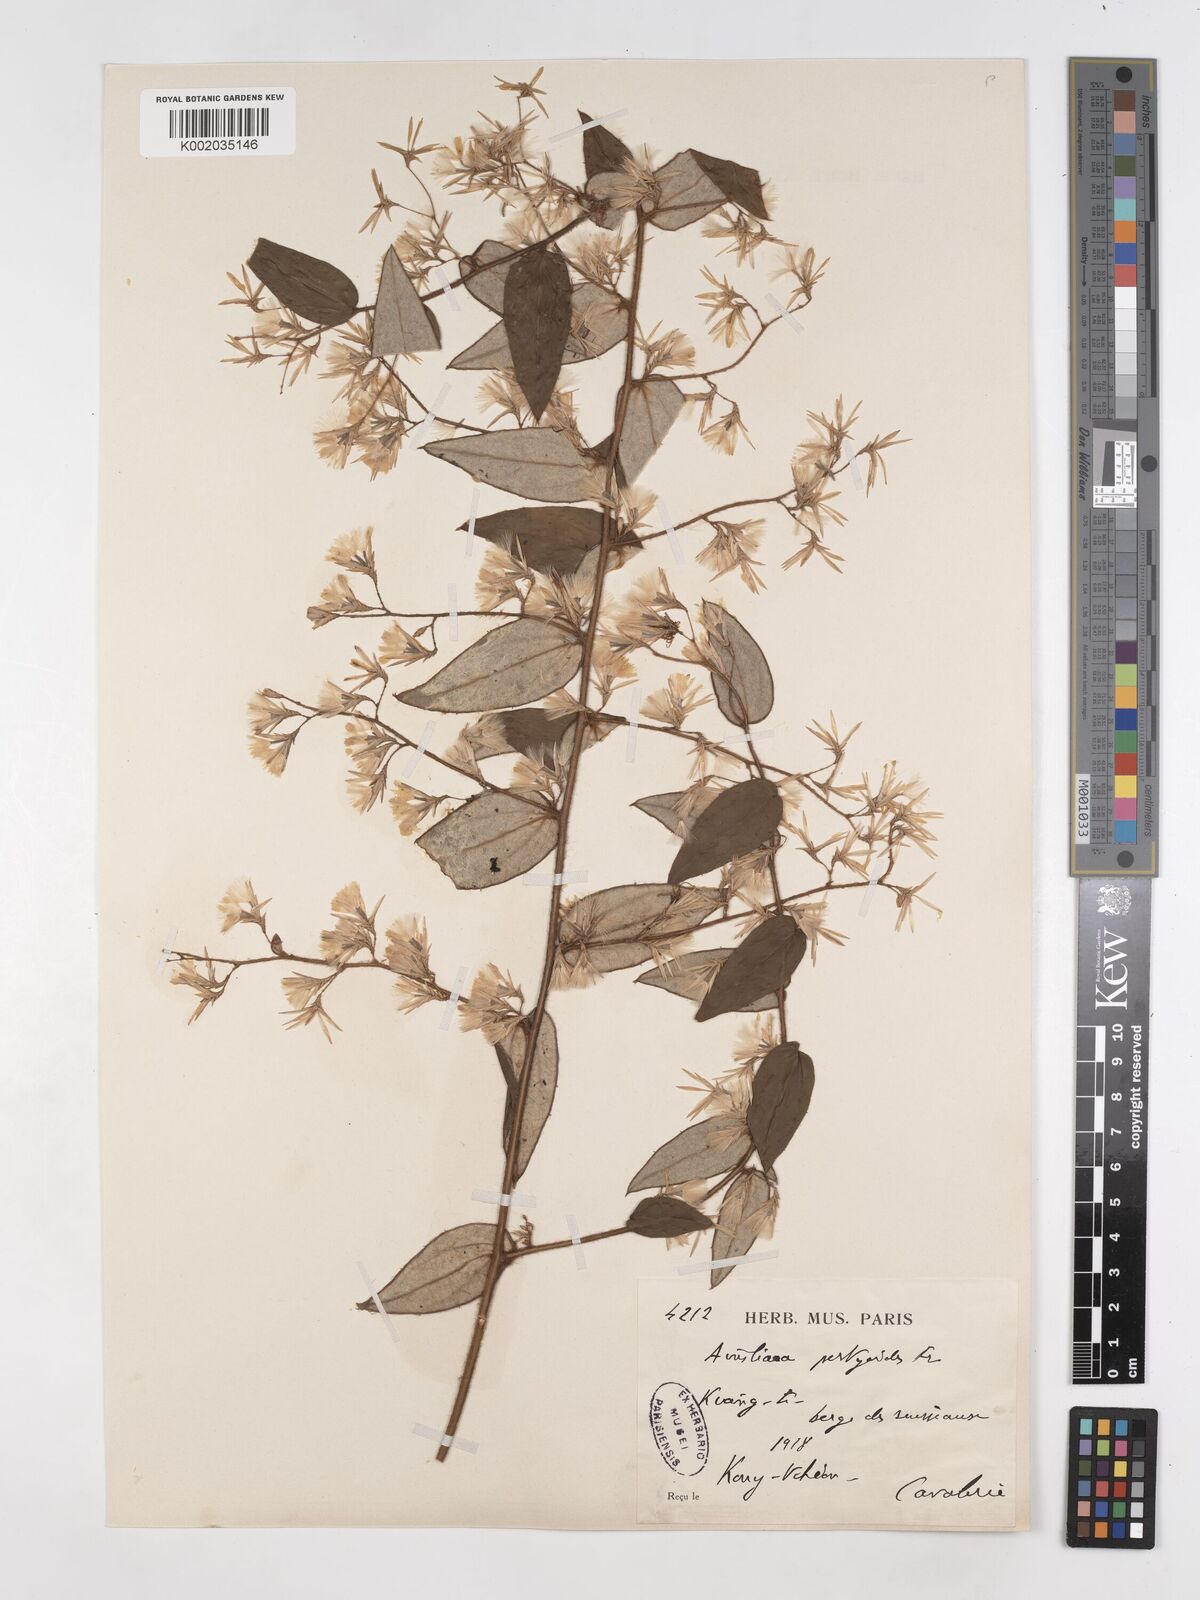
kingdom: Plantae
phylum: Tracheophyta
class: Magnoliopsida
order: Asterales
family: Asteraceae
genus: Ainsliaea
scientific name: Ainsliaea pertyoides
